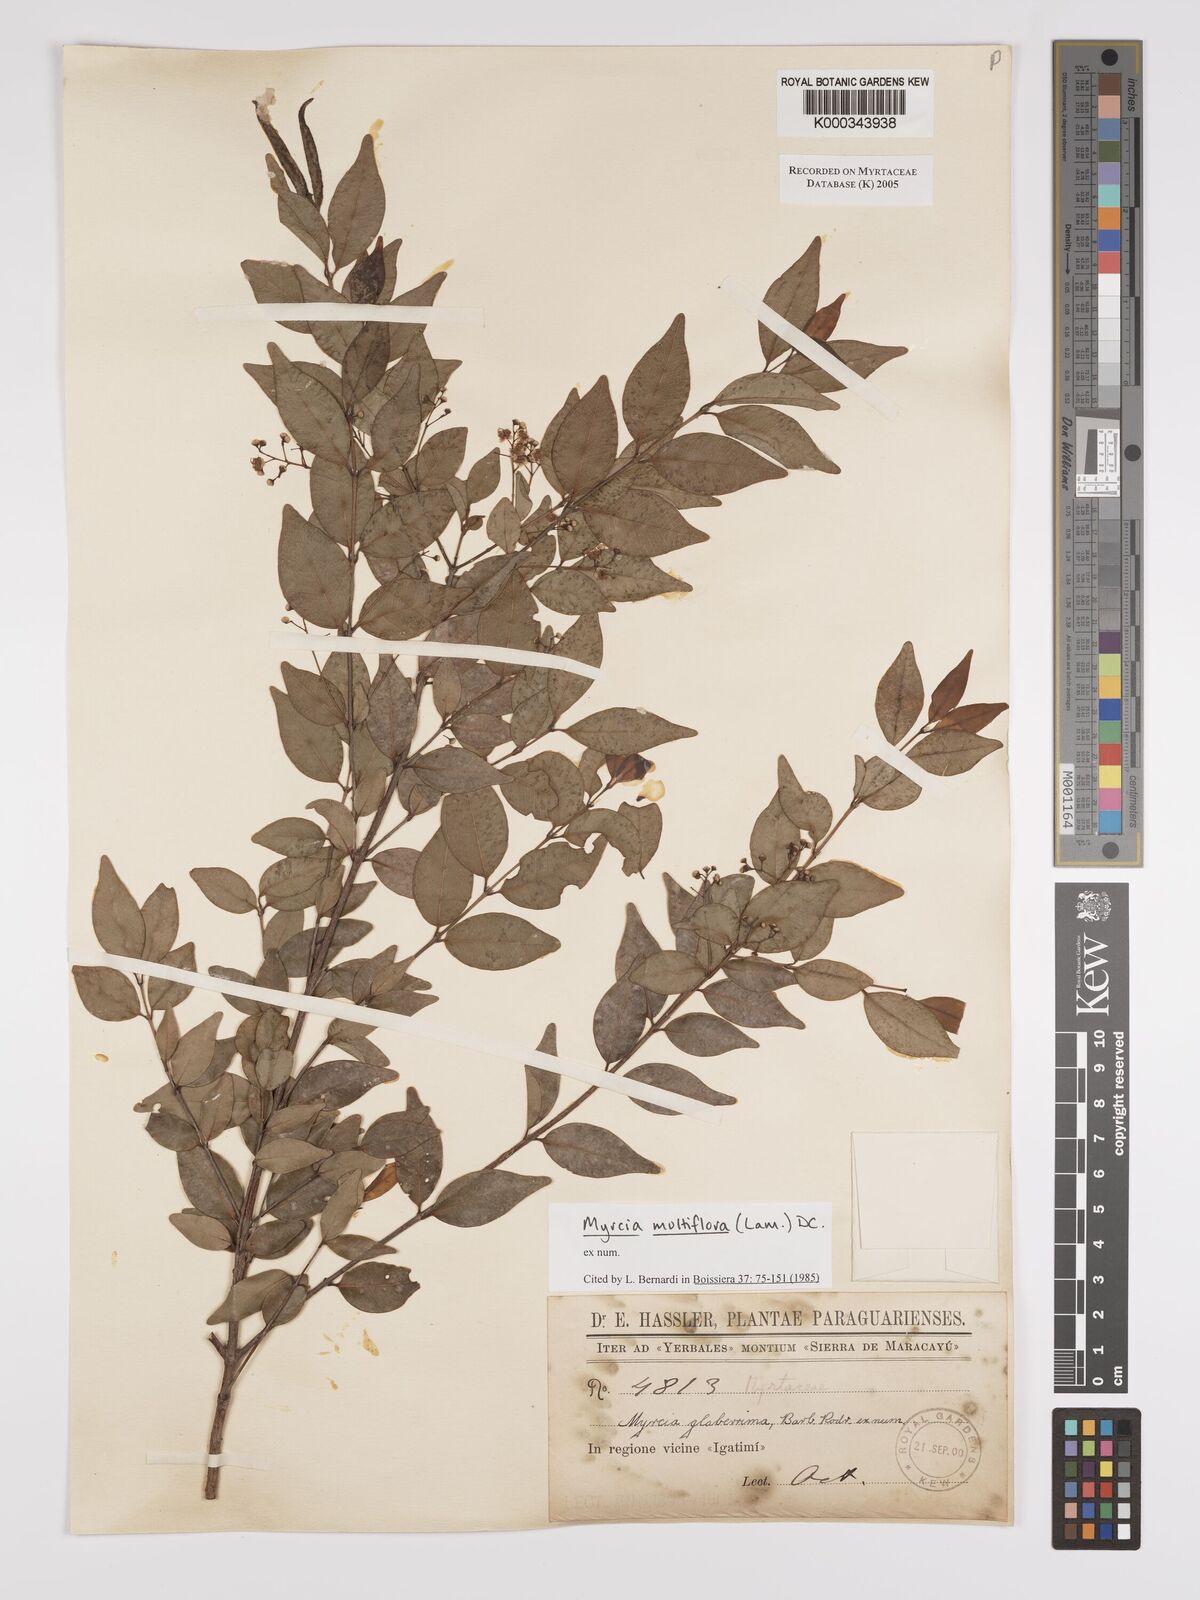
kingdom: Plantae
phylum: Tracheophyta
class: Magnoliopsida
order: Myrtales
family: Myrtaceae
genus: Myrcia
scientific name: Myrcia multiflora
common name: Pedra hume
